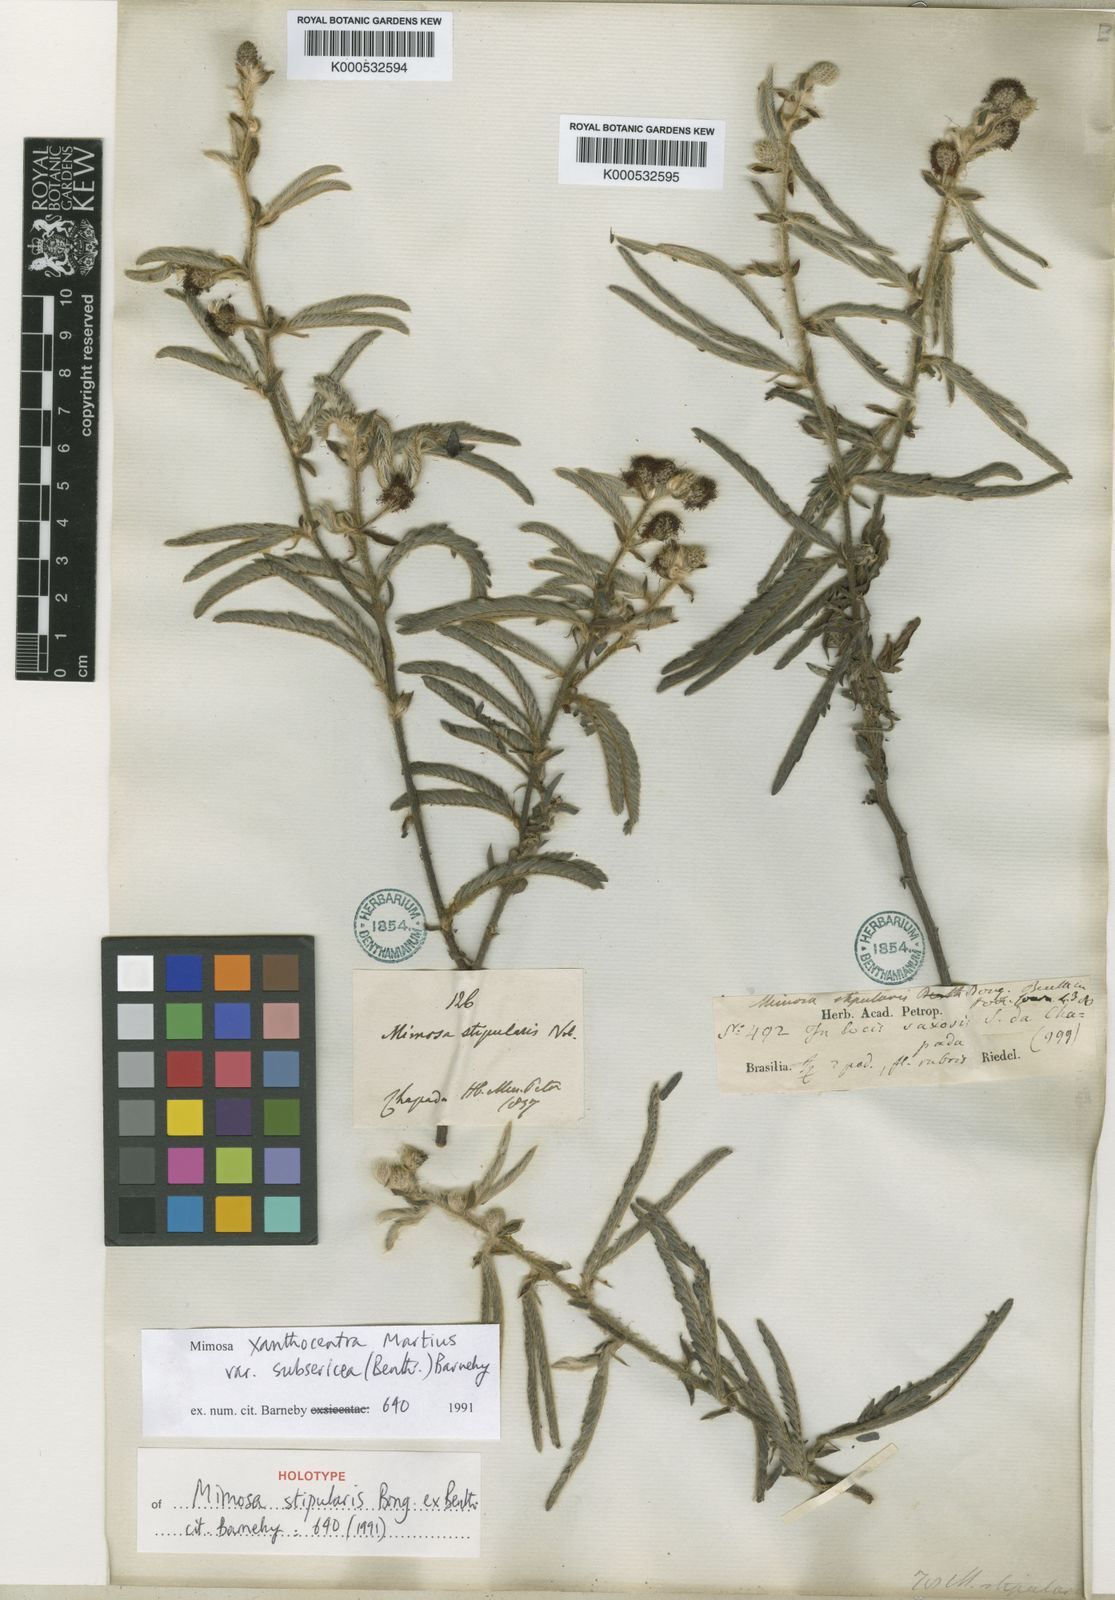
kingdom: Plantae
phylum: Tracheophyta
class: Magnoliopsida
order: Fabales
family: Fabaceae
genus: Mimosa
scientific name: Mimosa xanthocentra
